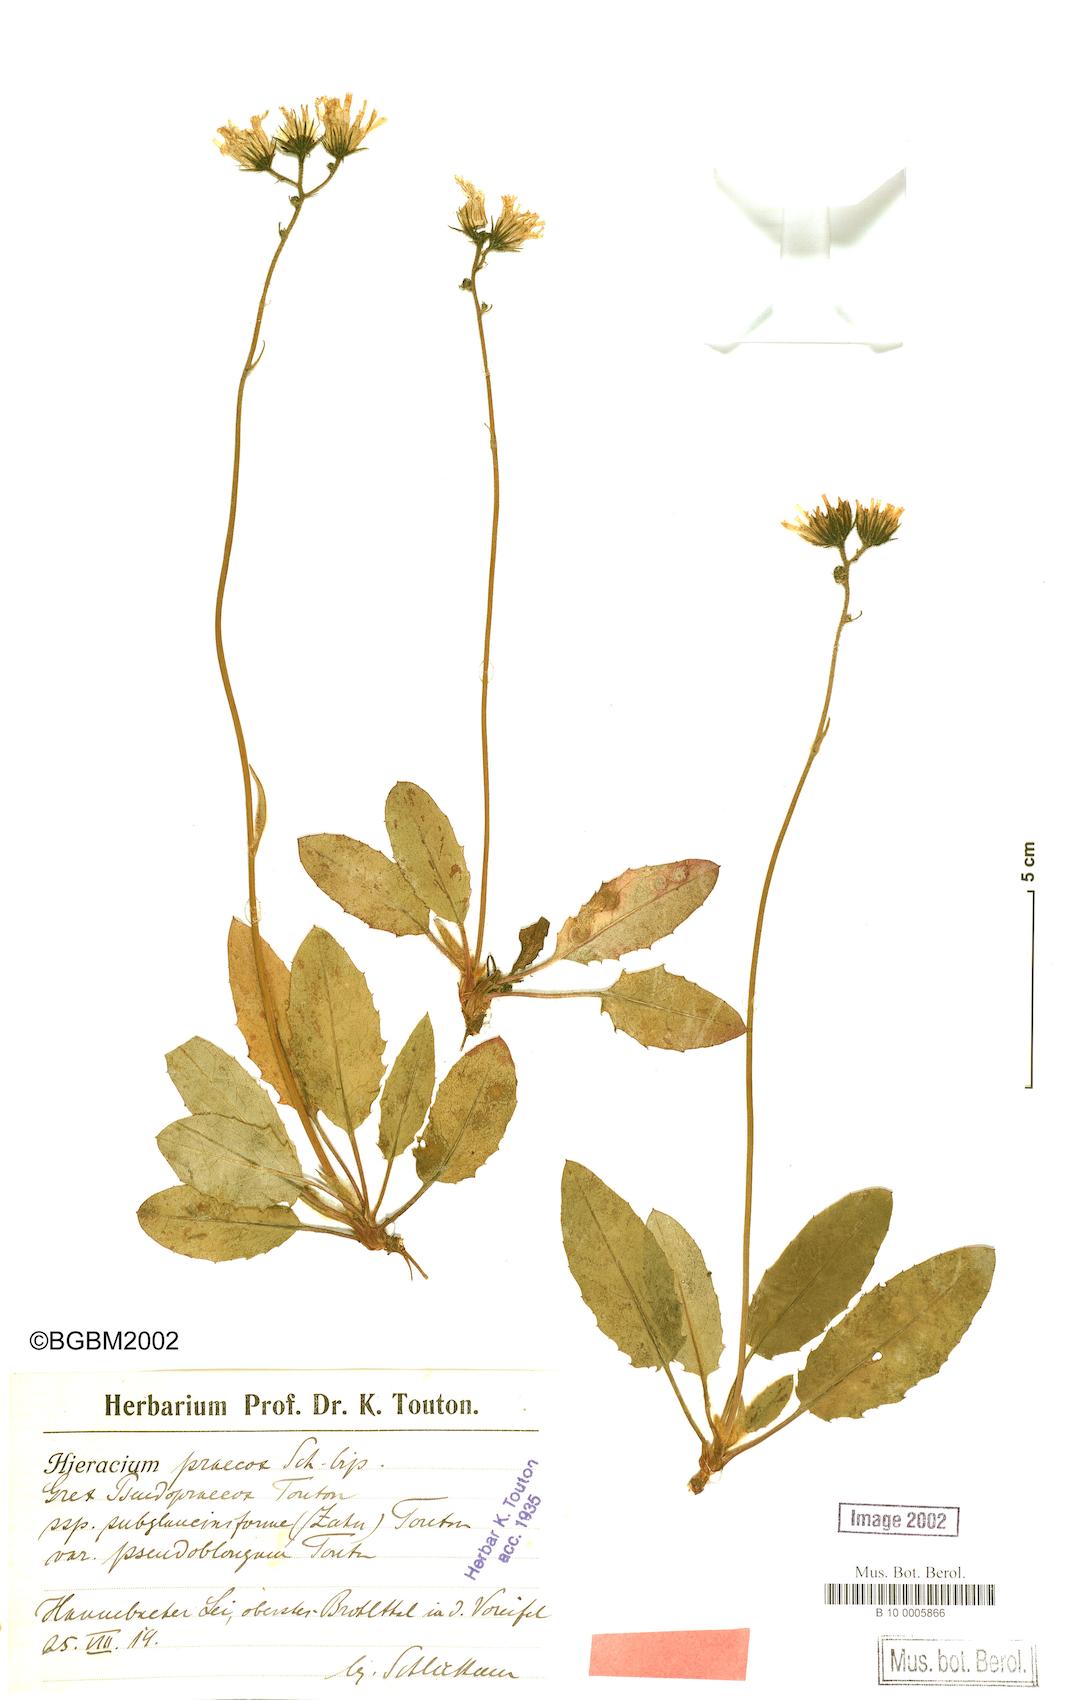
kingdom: Plantae
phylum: Tracheophyta
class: Magnoliopsida
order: Asterales
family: Asteraceae
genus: Hieracium
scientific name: Hieracium murorum
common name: Wall hawkweed
